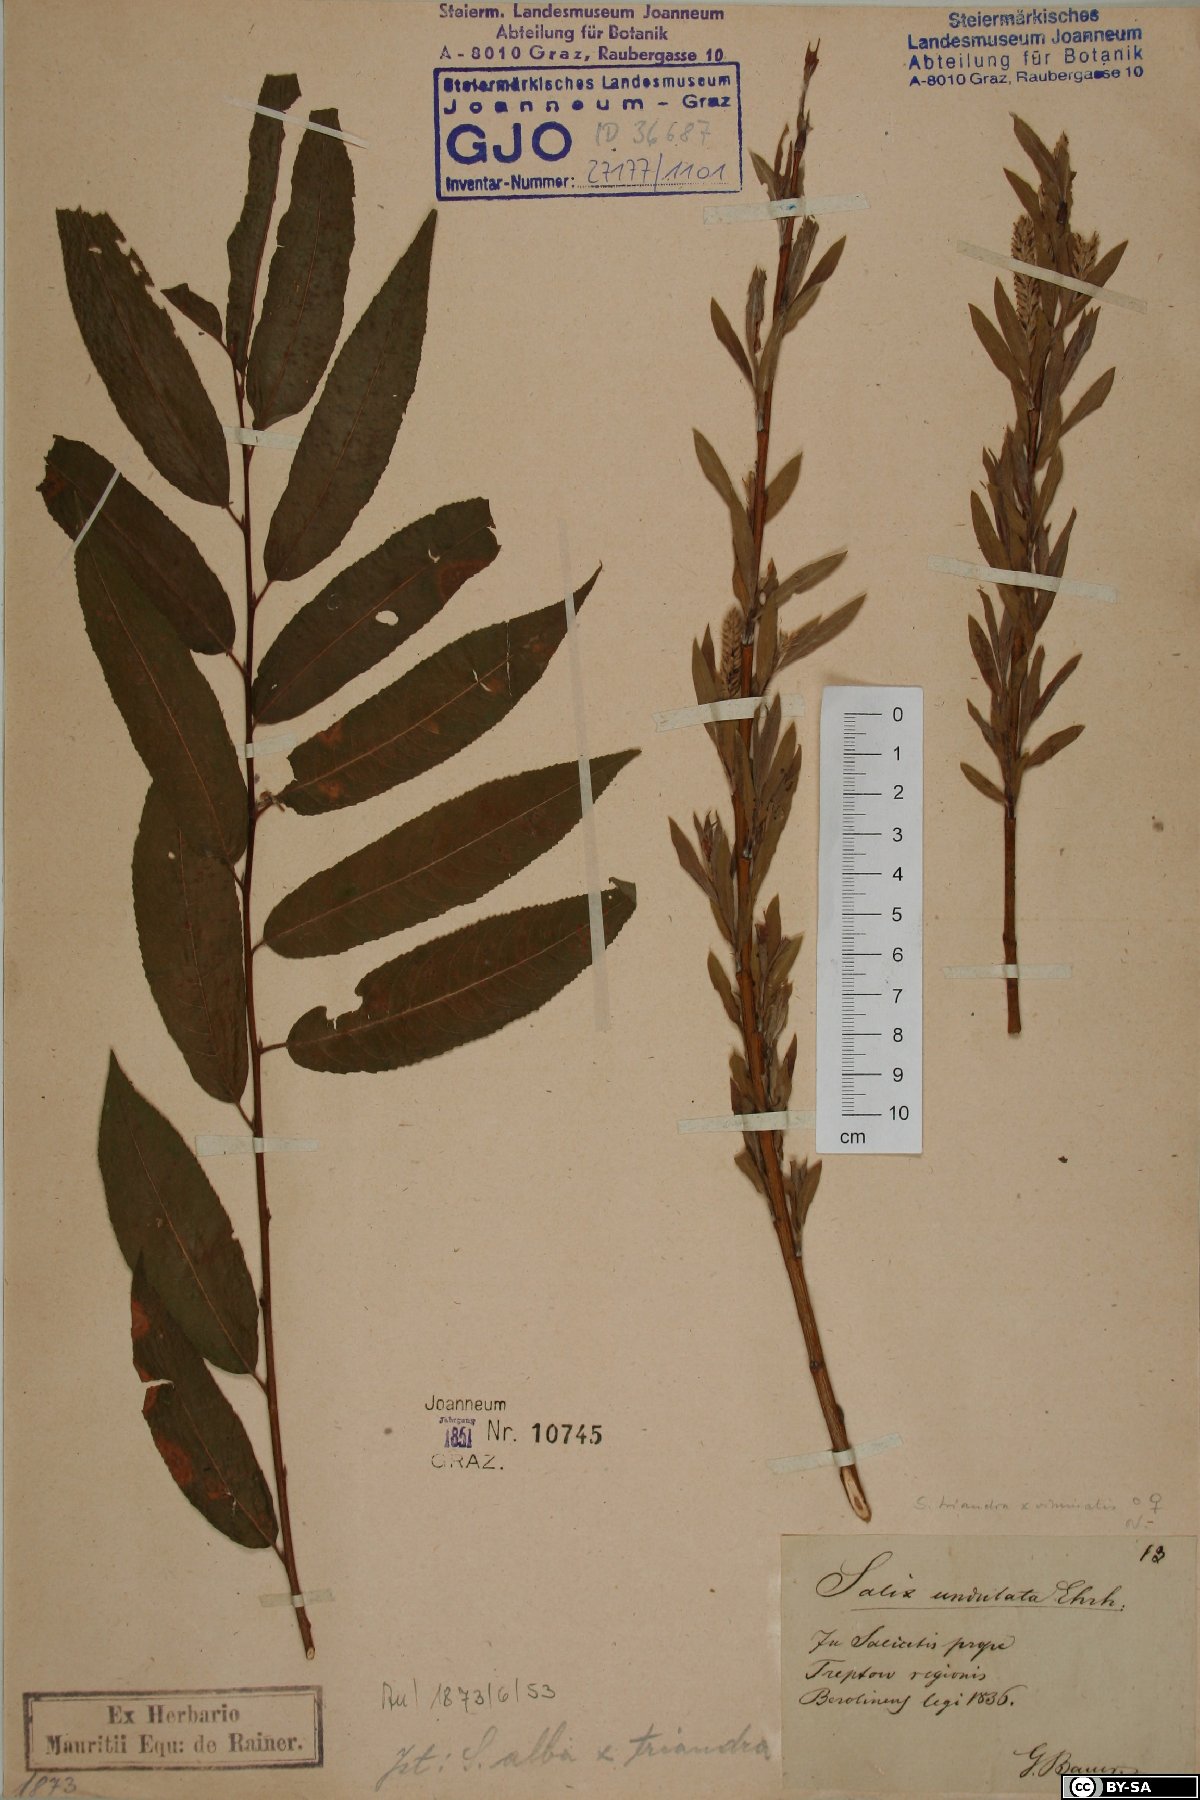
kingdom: Plantae
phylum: Tracheophyta
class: Magnoliopsida
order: Malpighiales
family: Salicaceae
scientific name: Salicaceae
